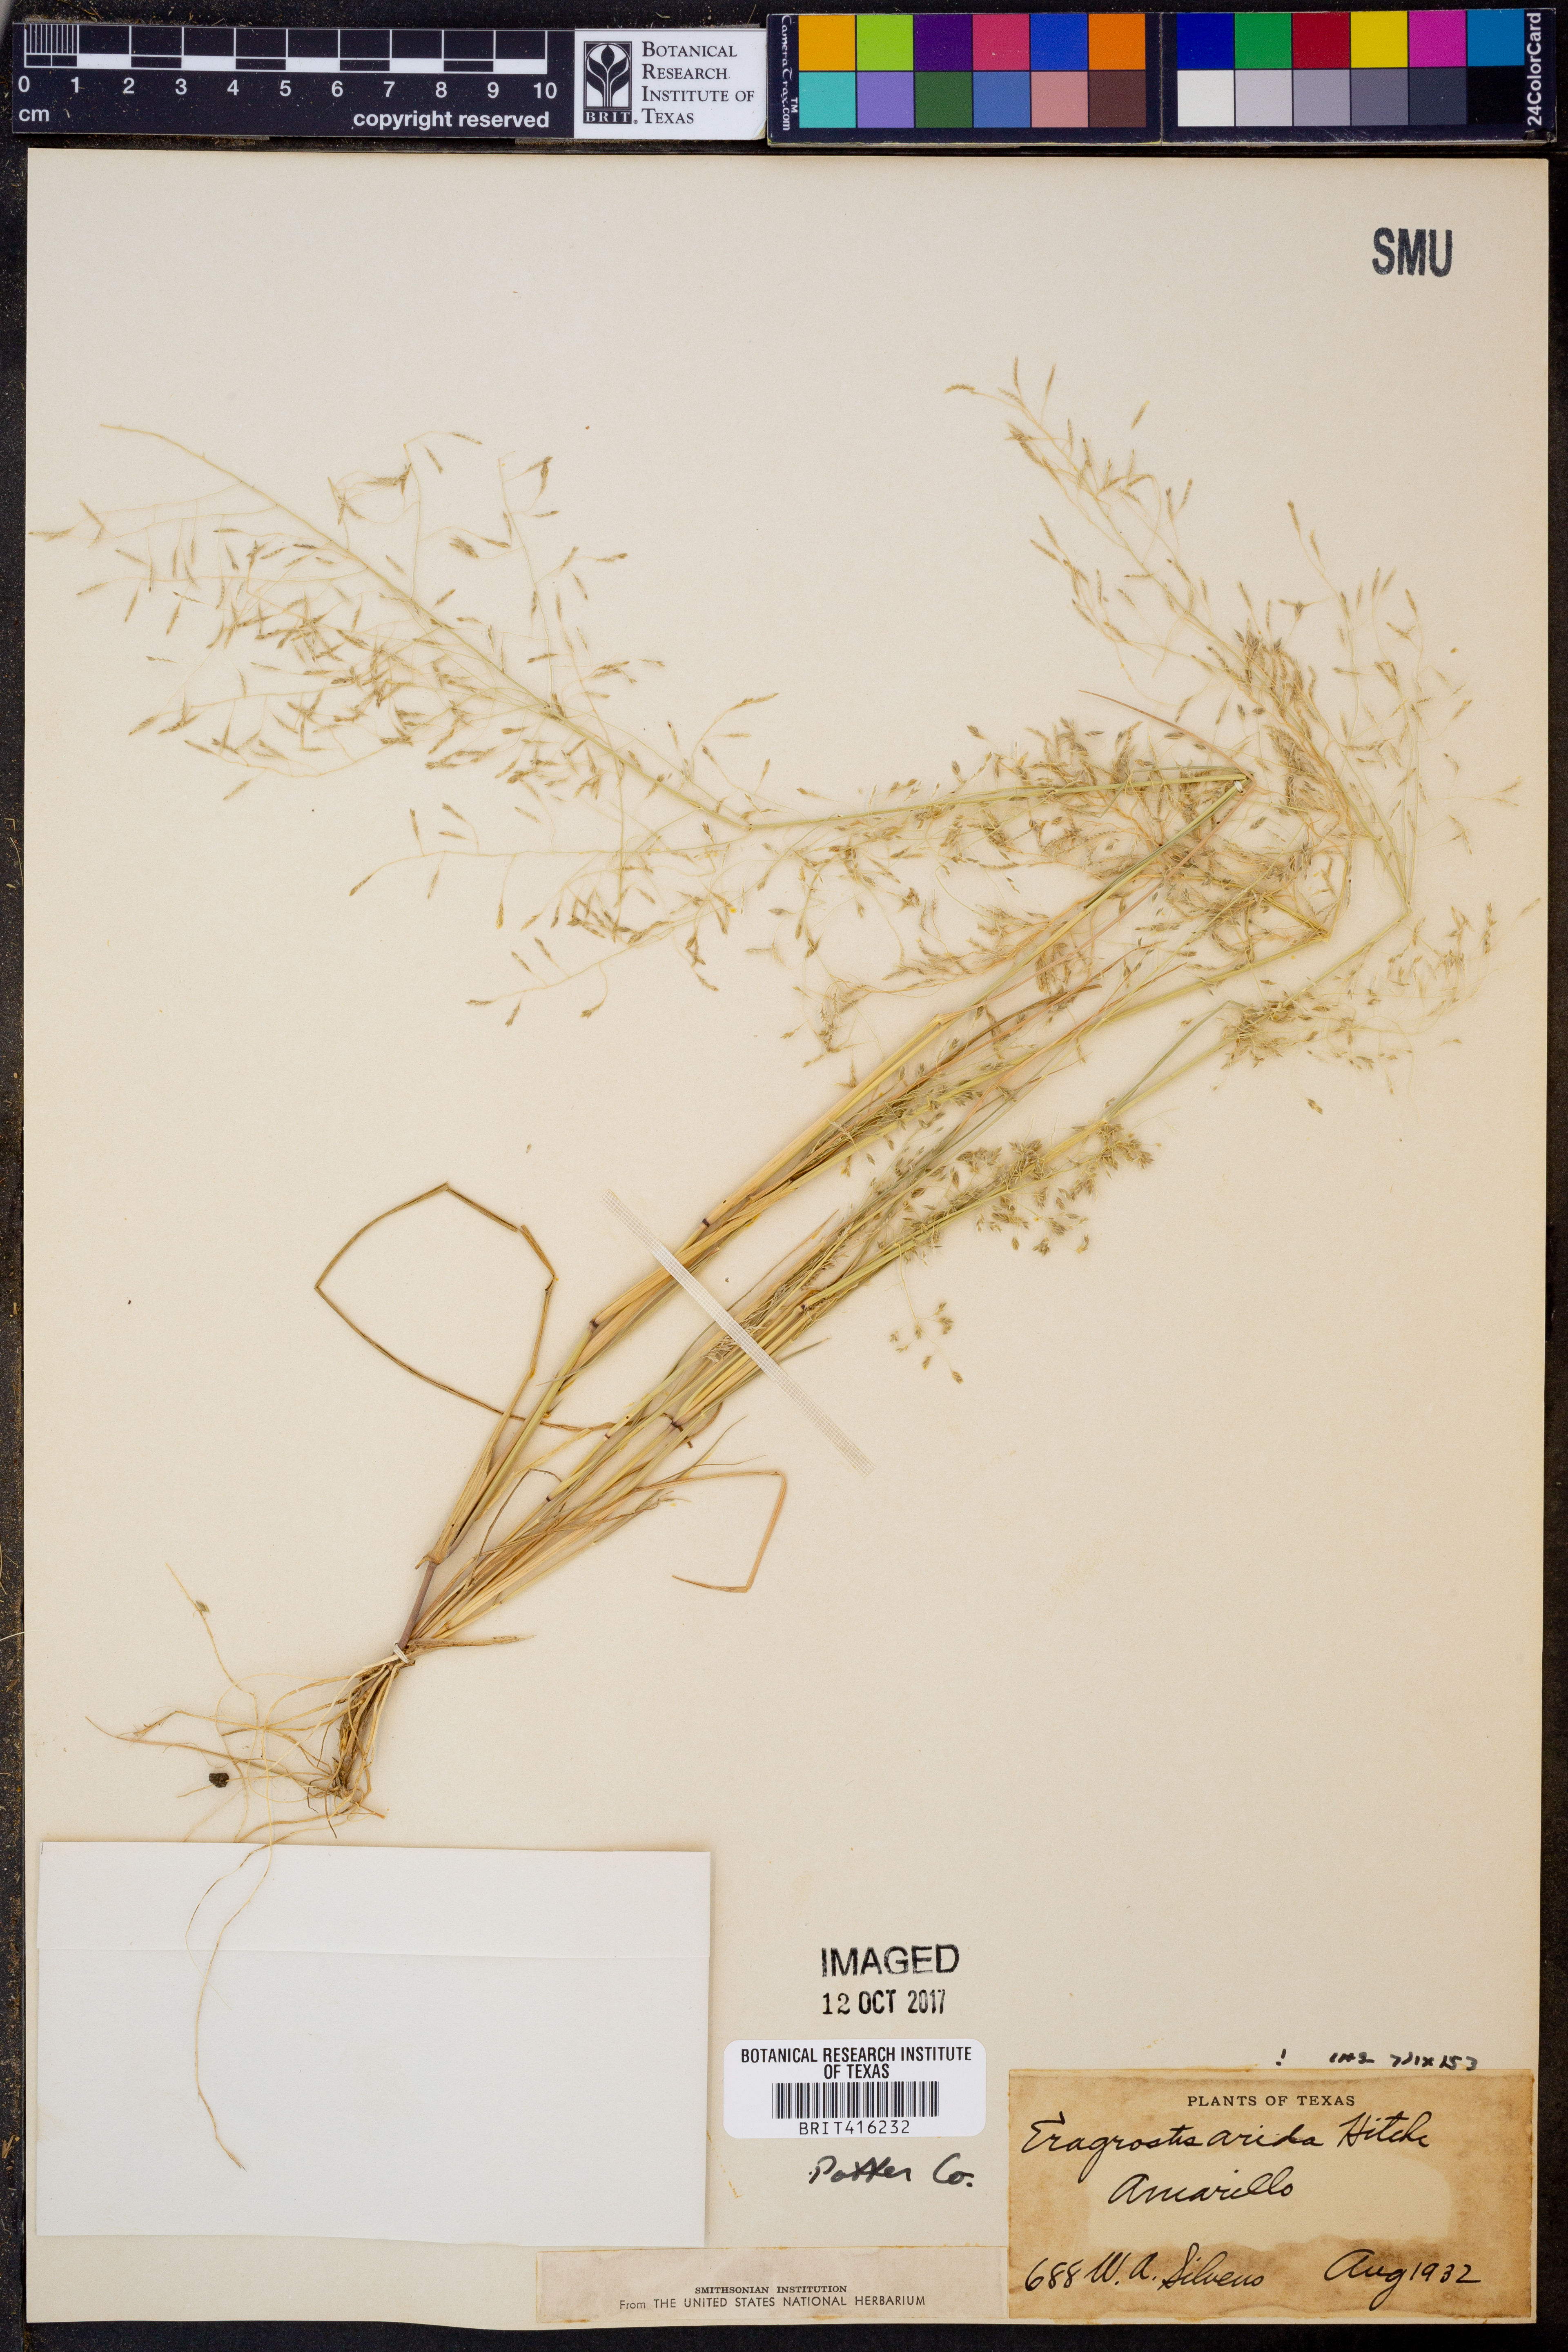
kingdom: Plantae
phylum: Tracheophyta
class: Liliopsida
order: Poales
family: Poaceae
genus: Eragrostis
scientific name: Eragrostis
